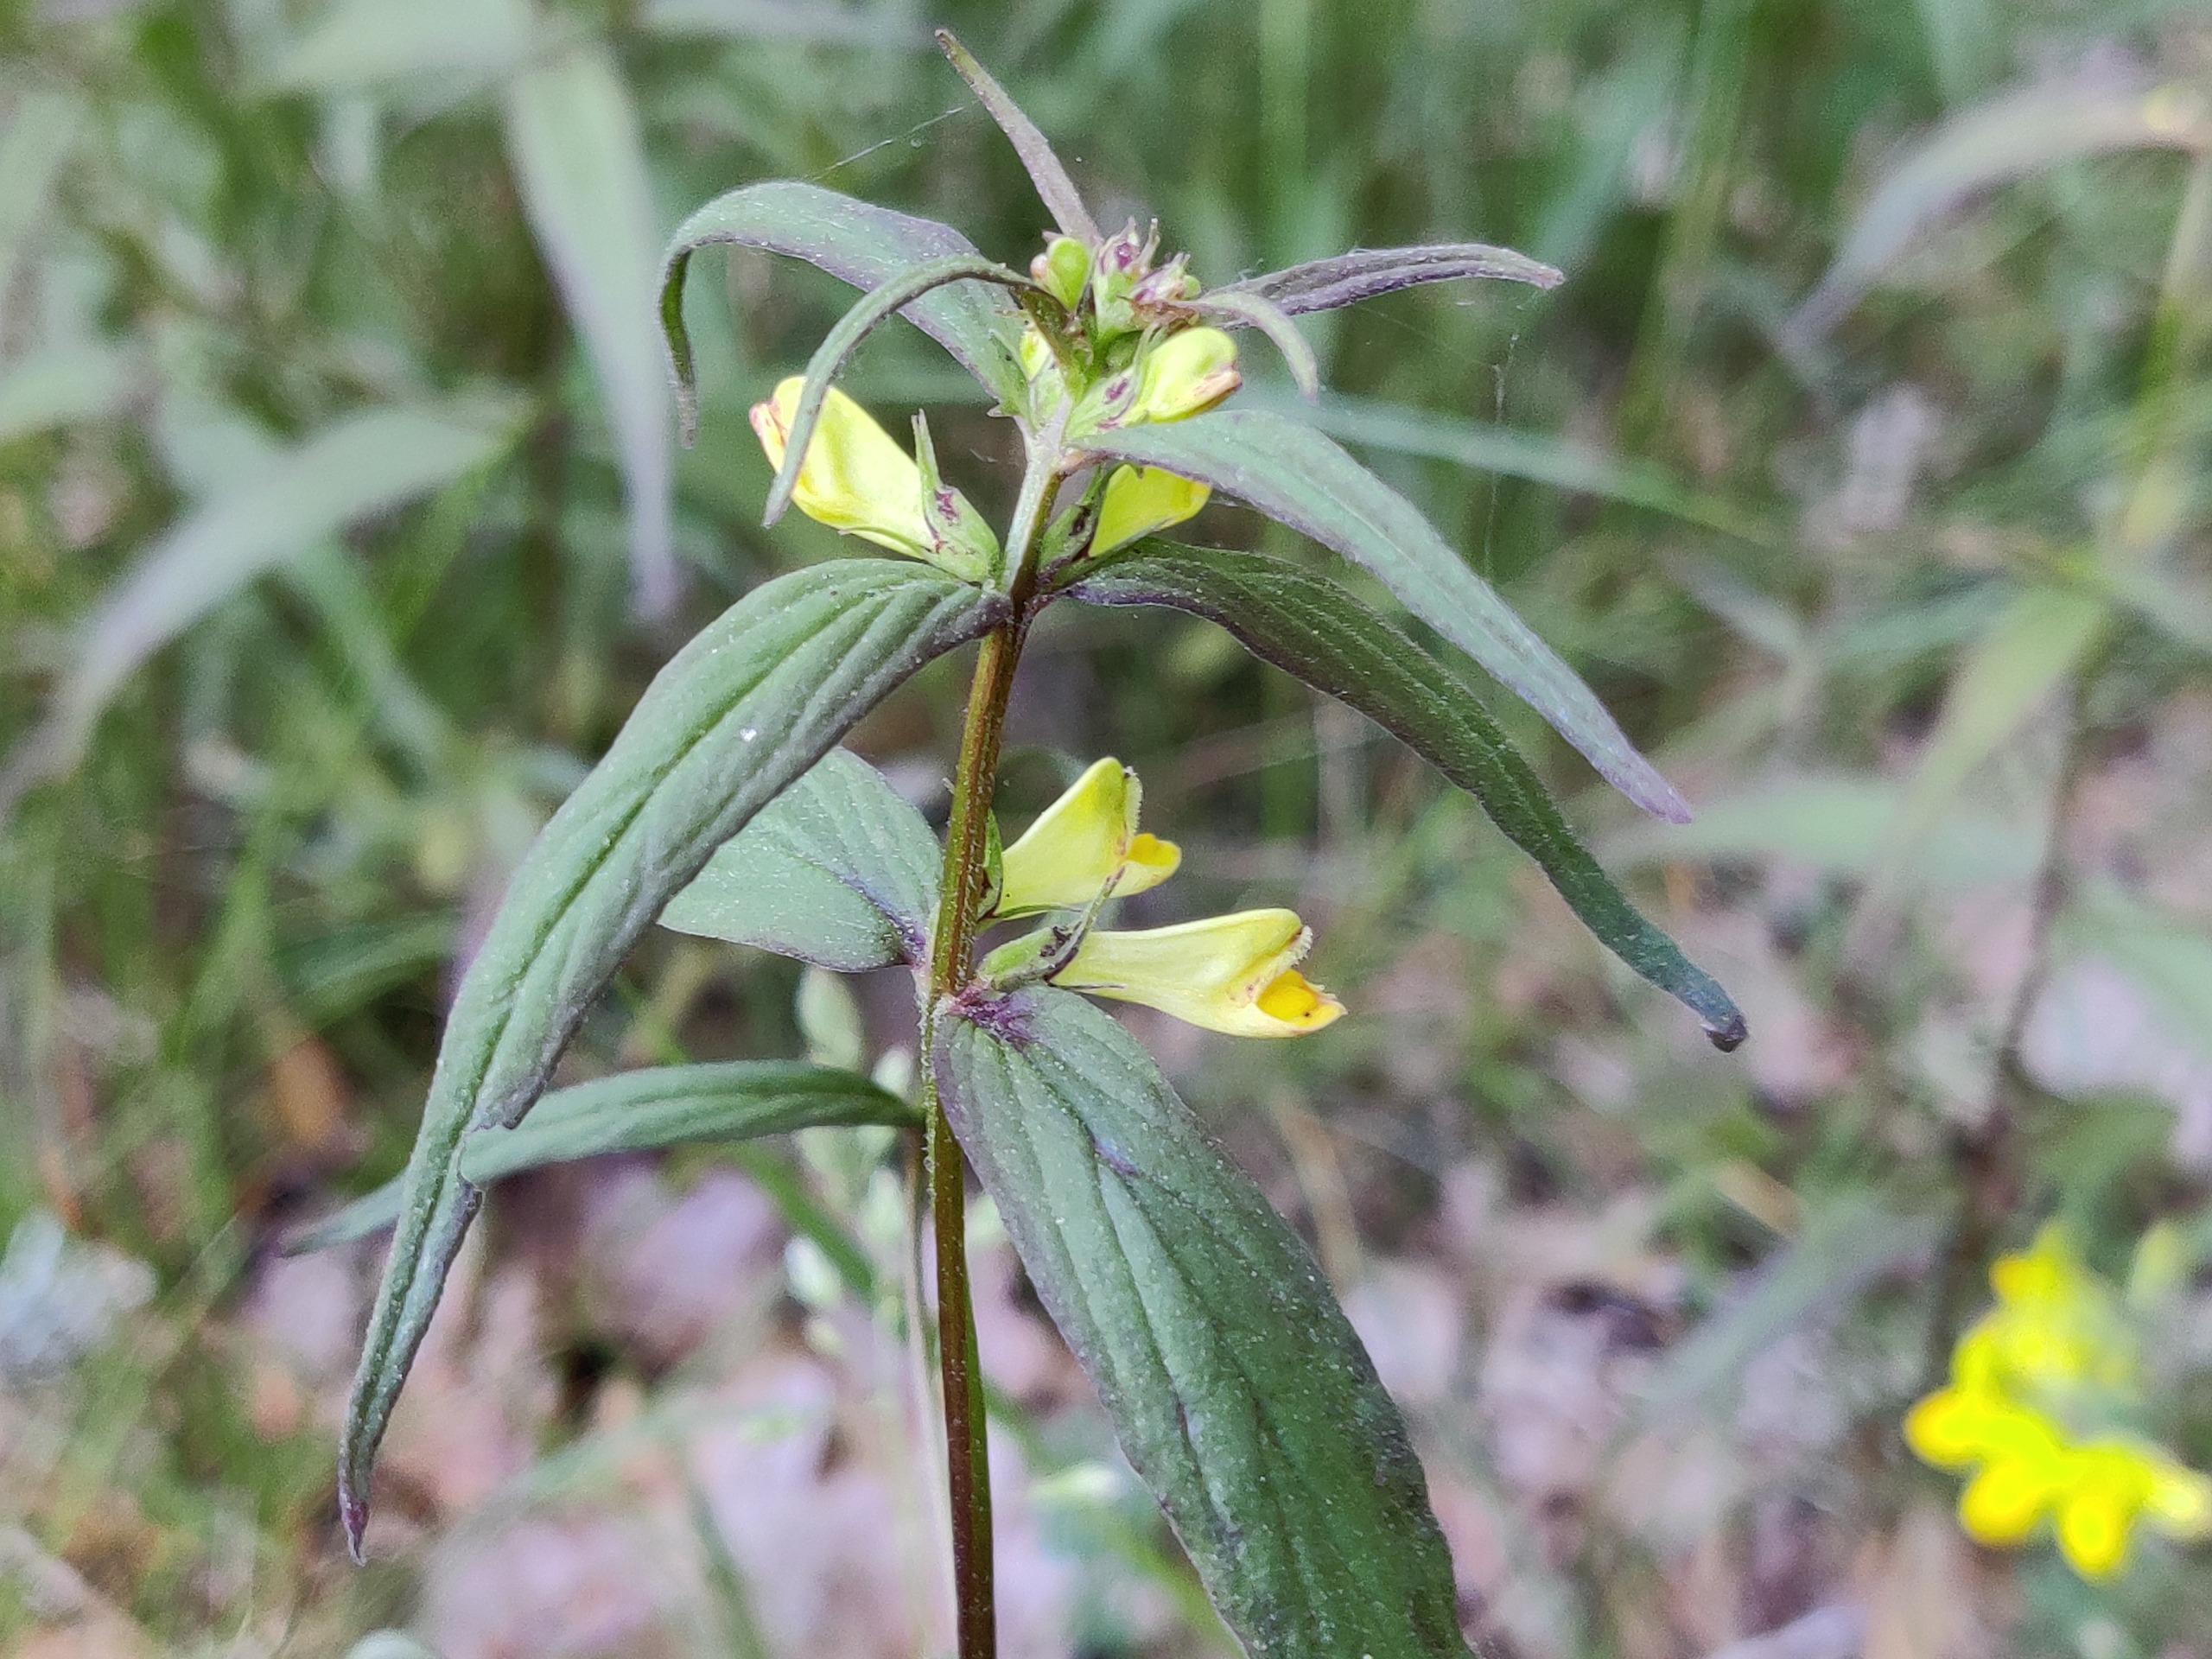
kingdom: Plantae
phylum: Tracheophyta
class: Magnoliopsida
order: Lamiales
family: Orobanchaceae
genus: Melampyrum
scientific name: Melampyrum pratense
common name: Almindelig kohvede
